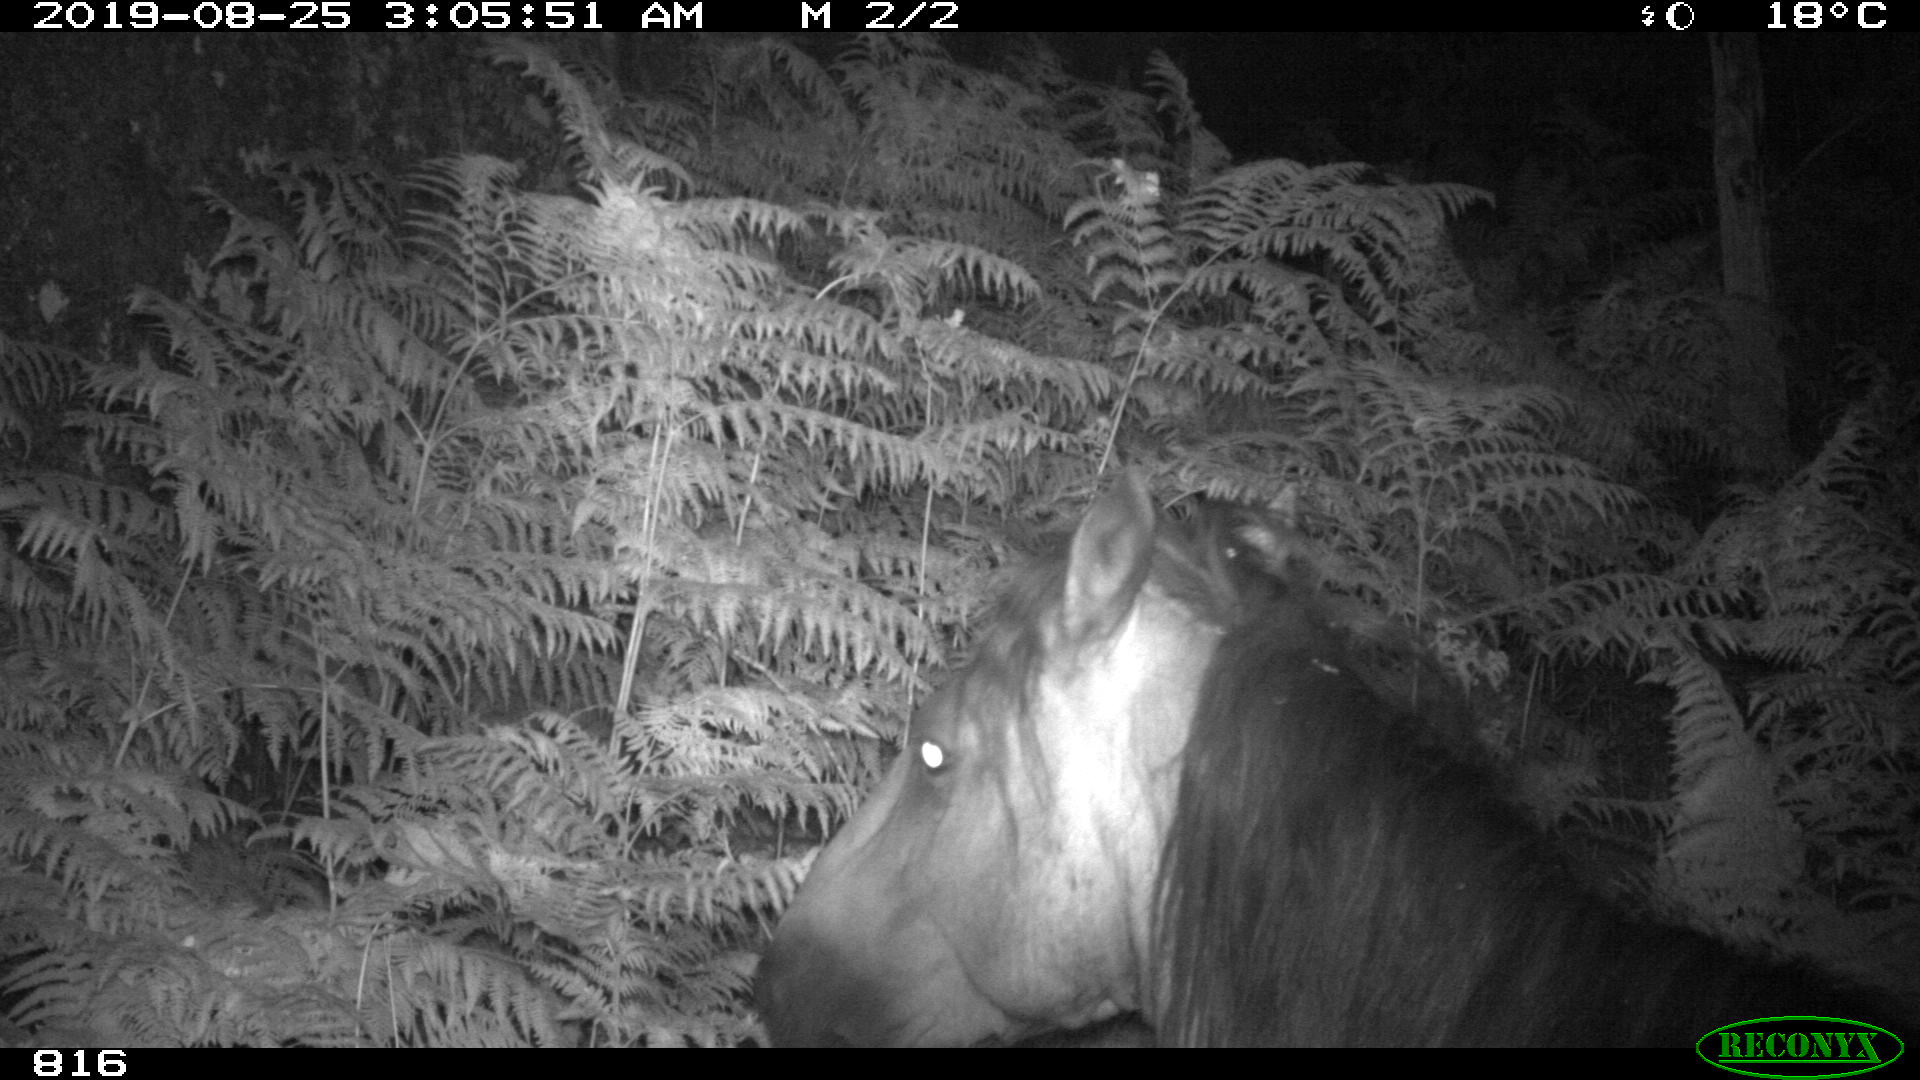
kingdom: Animalia
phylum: Chordata
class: Mammalia
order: Perissodactyla
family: Equidae
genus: Equus
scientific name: Equus caballus
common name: Horse
